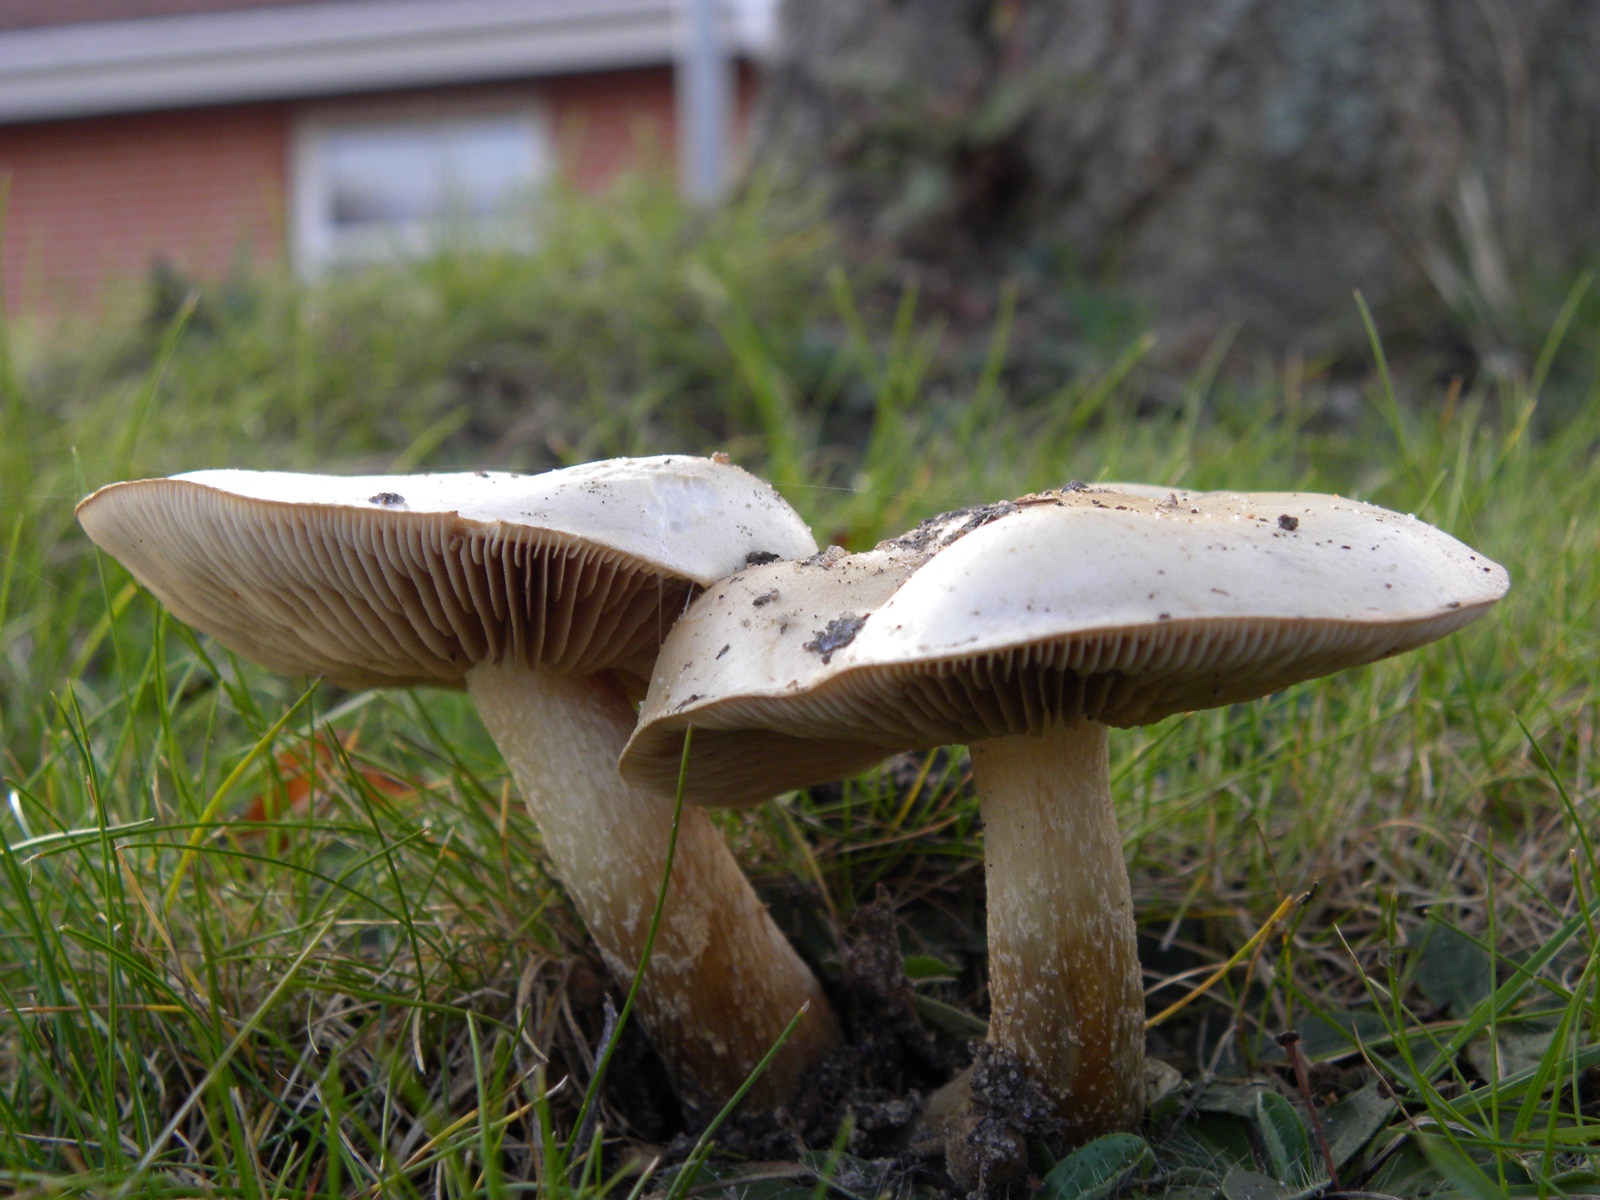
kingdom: Fungi
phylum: Basidiomycota
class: Agaricomycetes
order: Agaricales
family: Hymenogastraceae
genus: Hebeloma
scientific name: Hebeloma crustuliniforme
